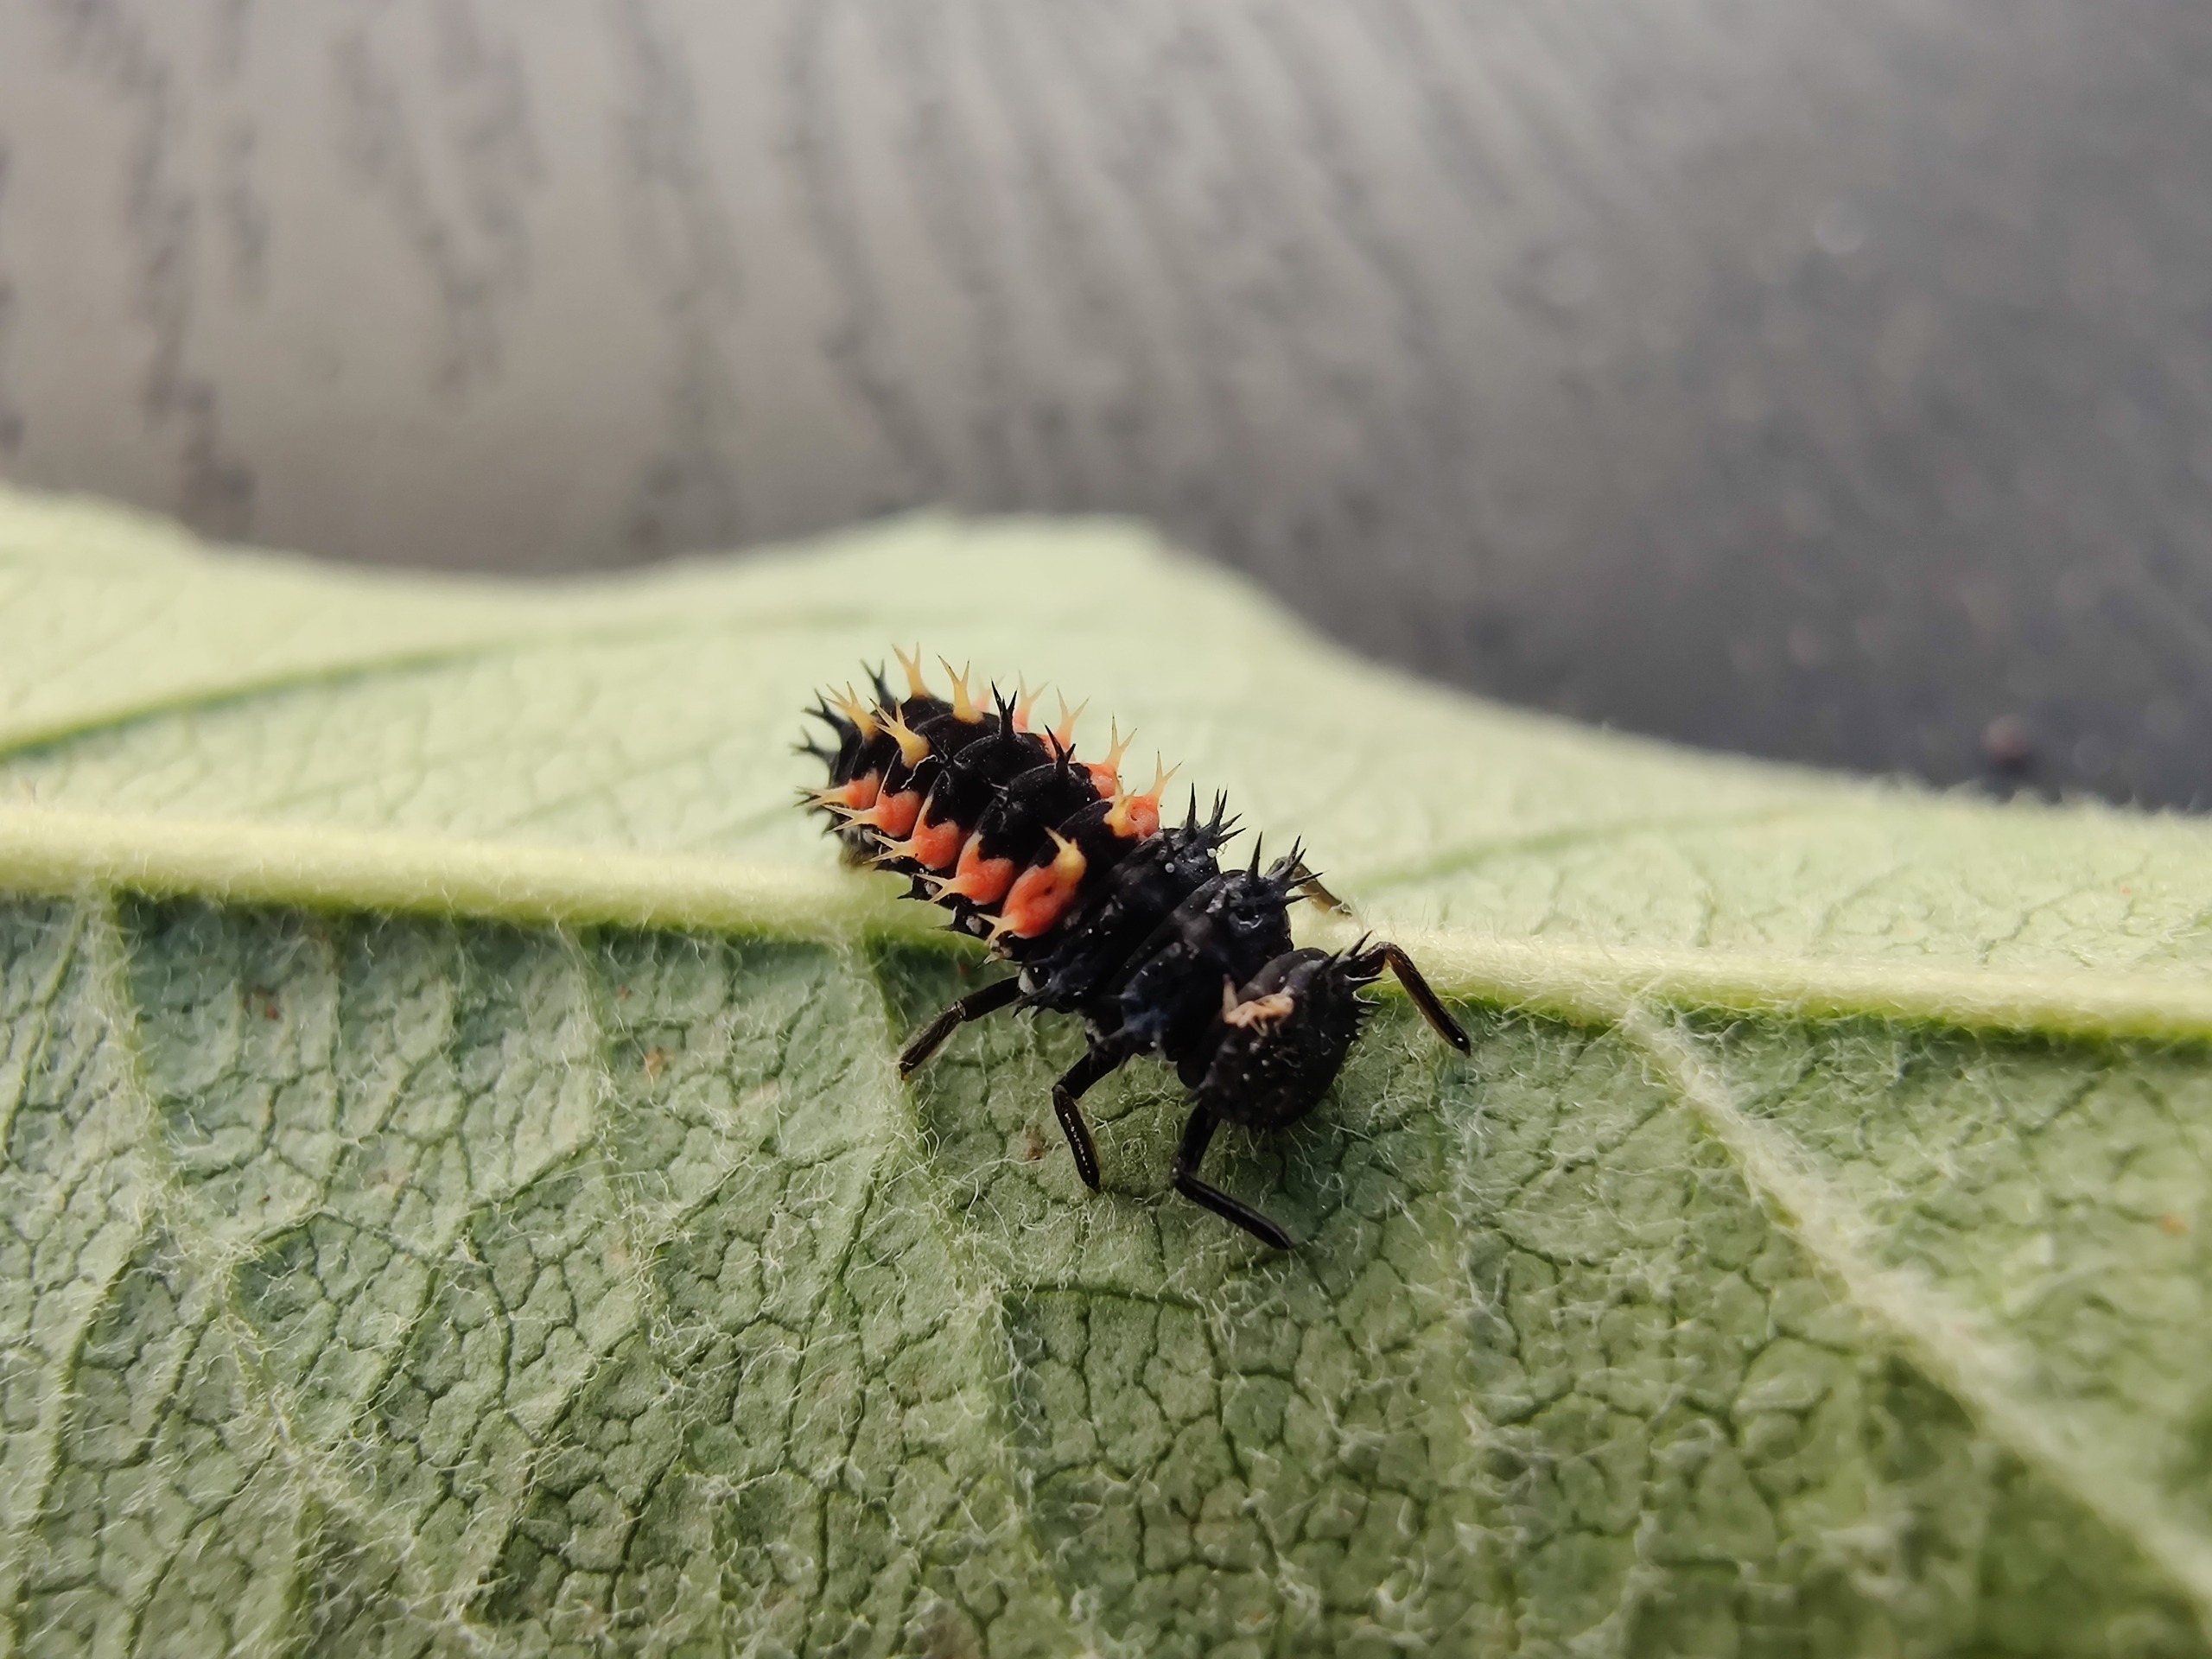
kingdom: Animalia
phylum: Arthropoda
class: Insecta
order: Coleoptera
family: Coccinellidae
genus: Harmonia
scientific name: Harmonia axyridis
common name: Harlekinmariehøne
